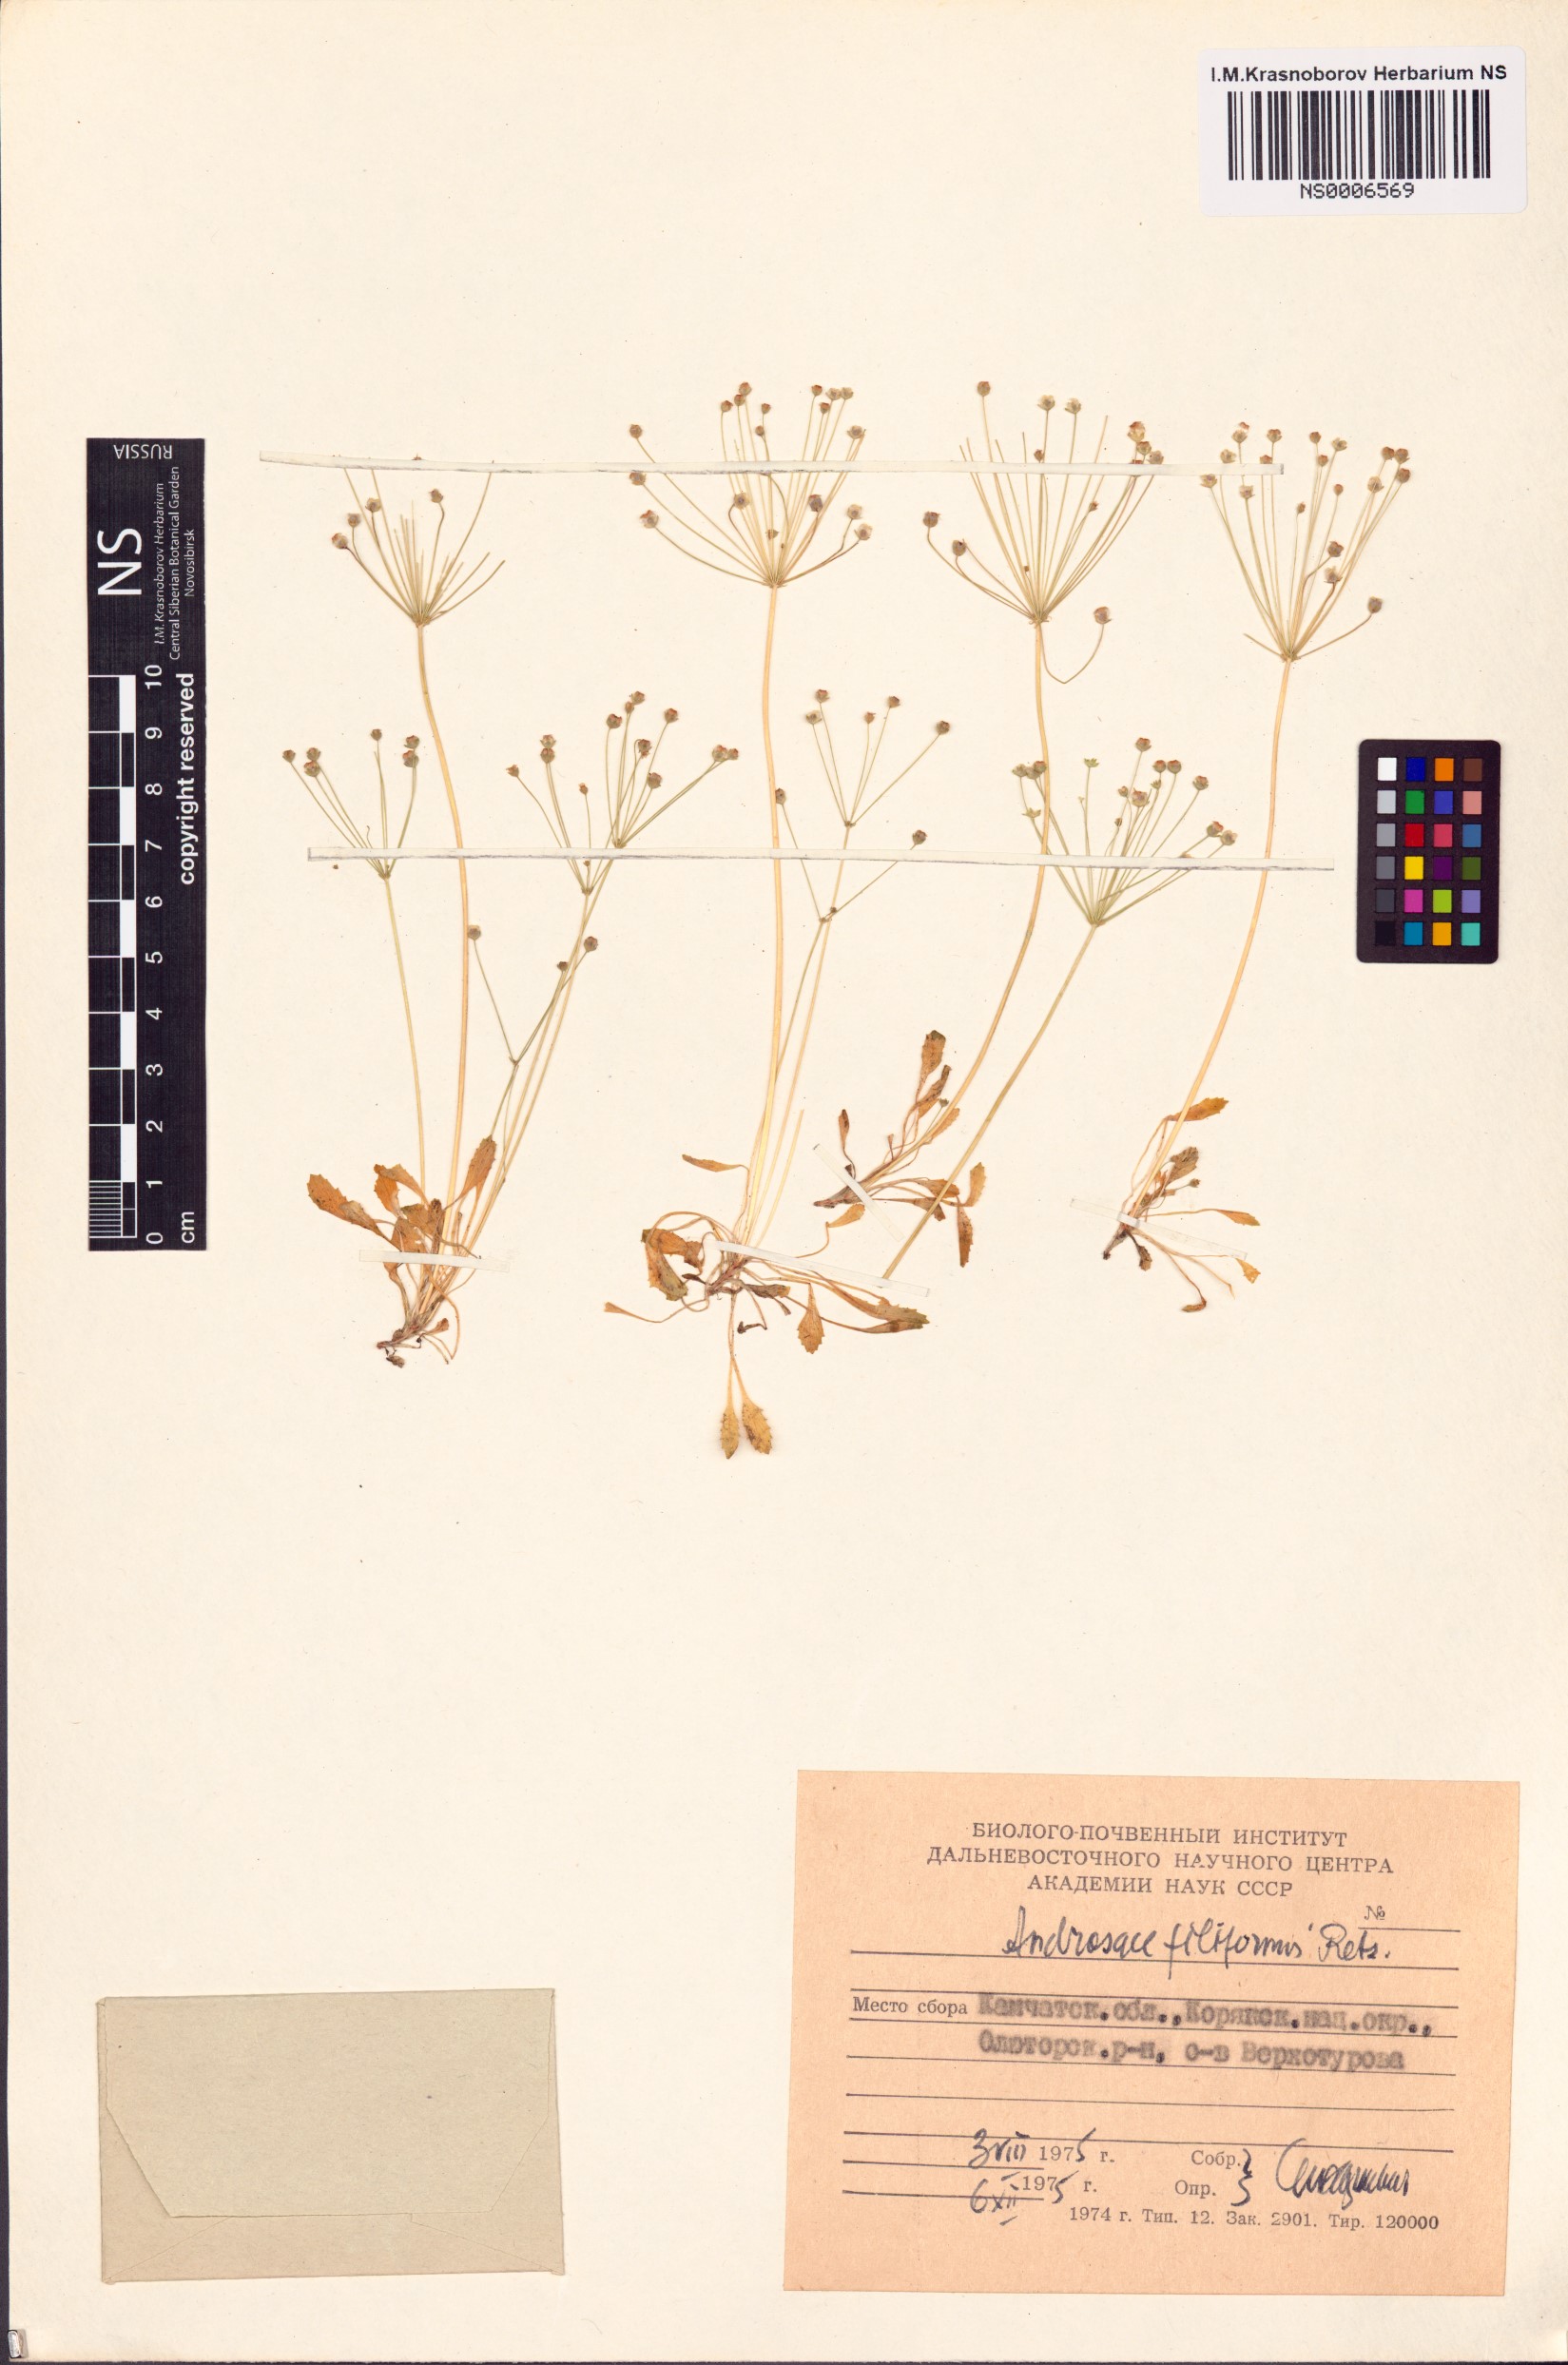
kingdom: Plantae
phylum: Tracheophyta
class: Magnoliopsida
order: Ericales
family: Primulaceae
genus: Androsace
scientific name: Androsace filiformis
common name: Filiform rock jasmine
